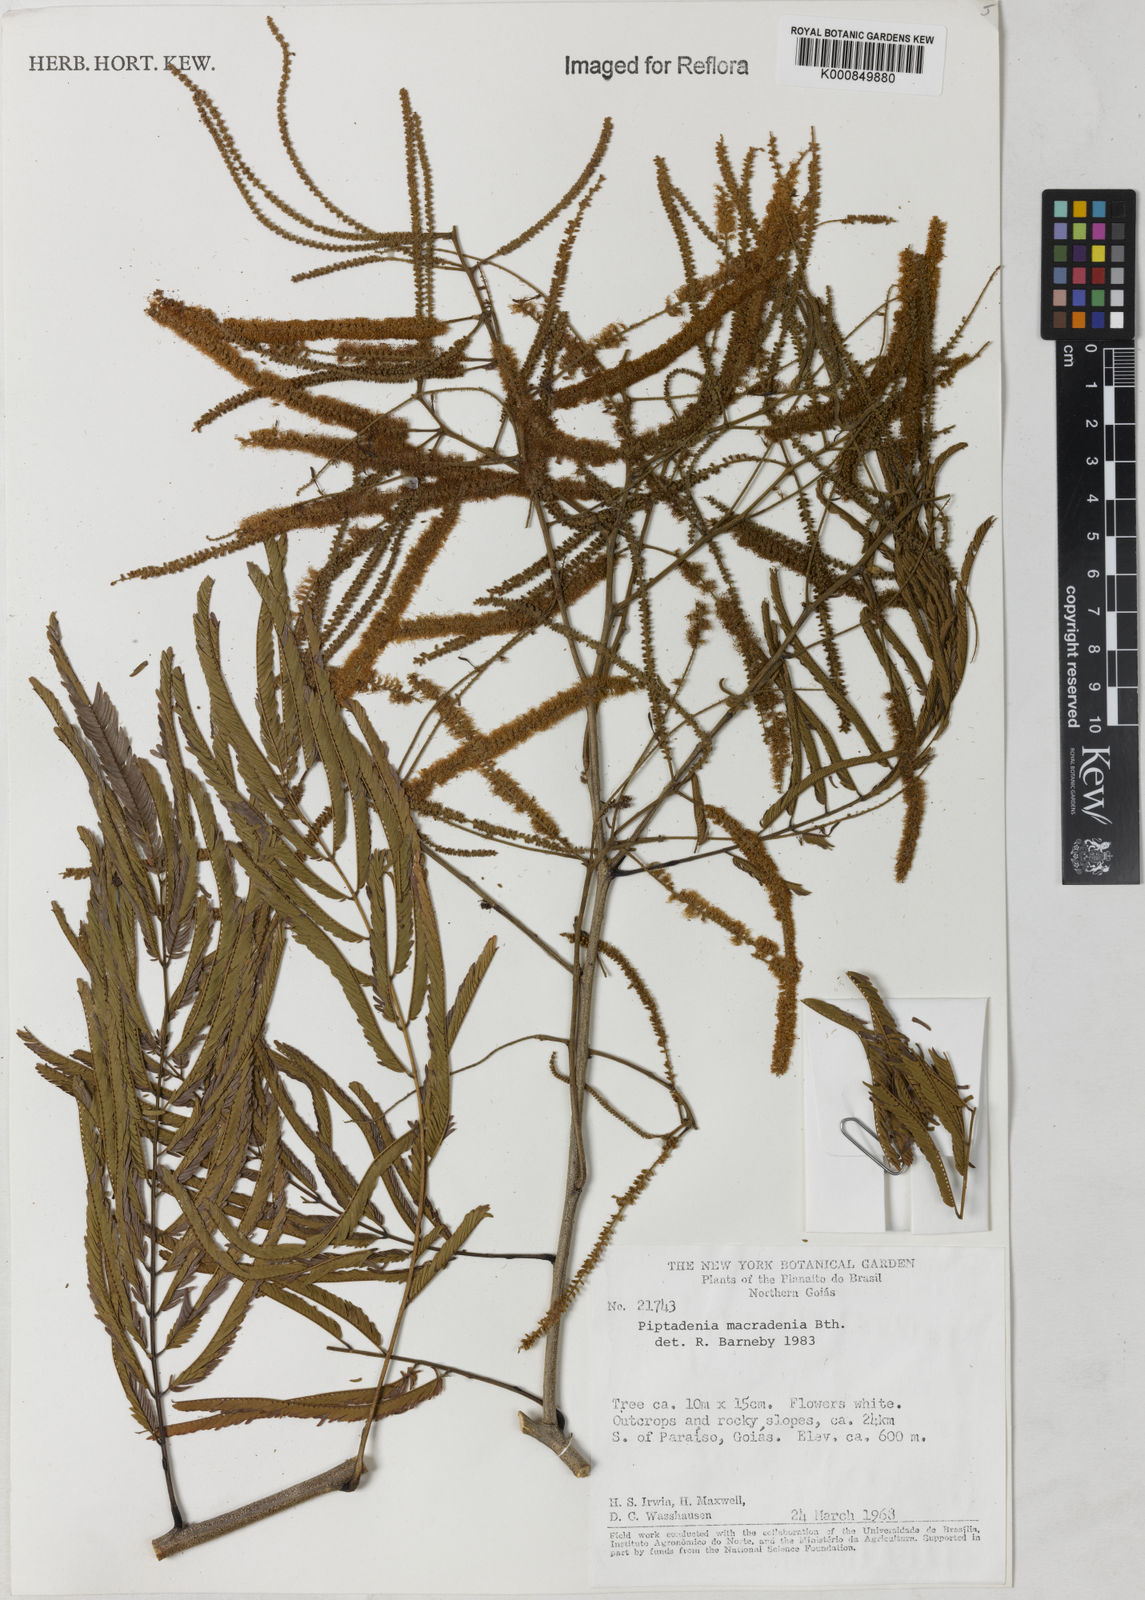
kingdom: Plantae
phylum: Tracheophyta
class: Magnoliopsida
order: Fabales
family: Fabaceae
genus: Piptadenia
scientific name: Piptadenia macradenia
